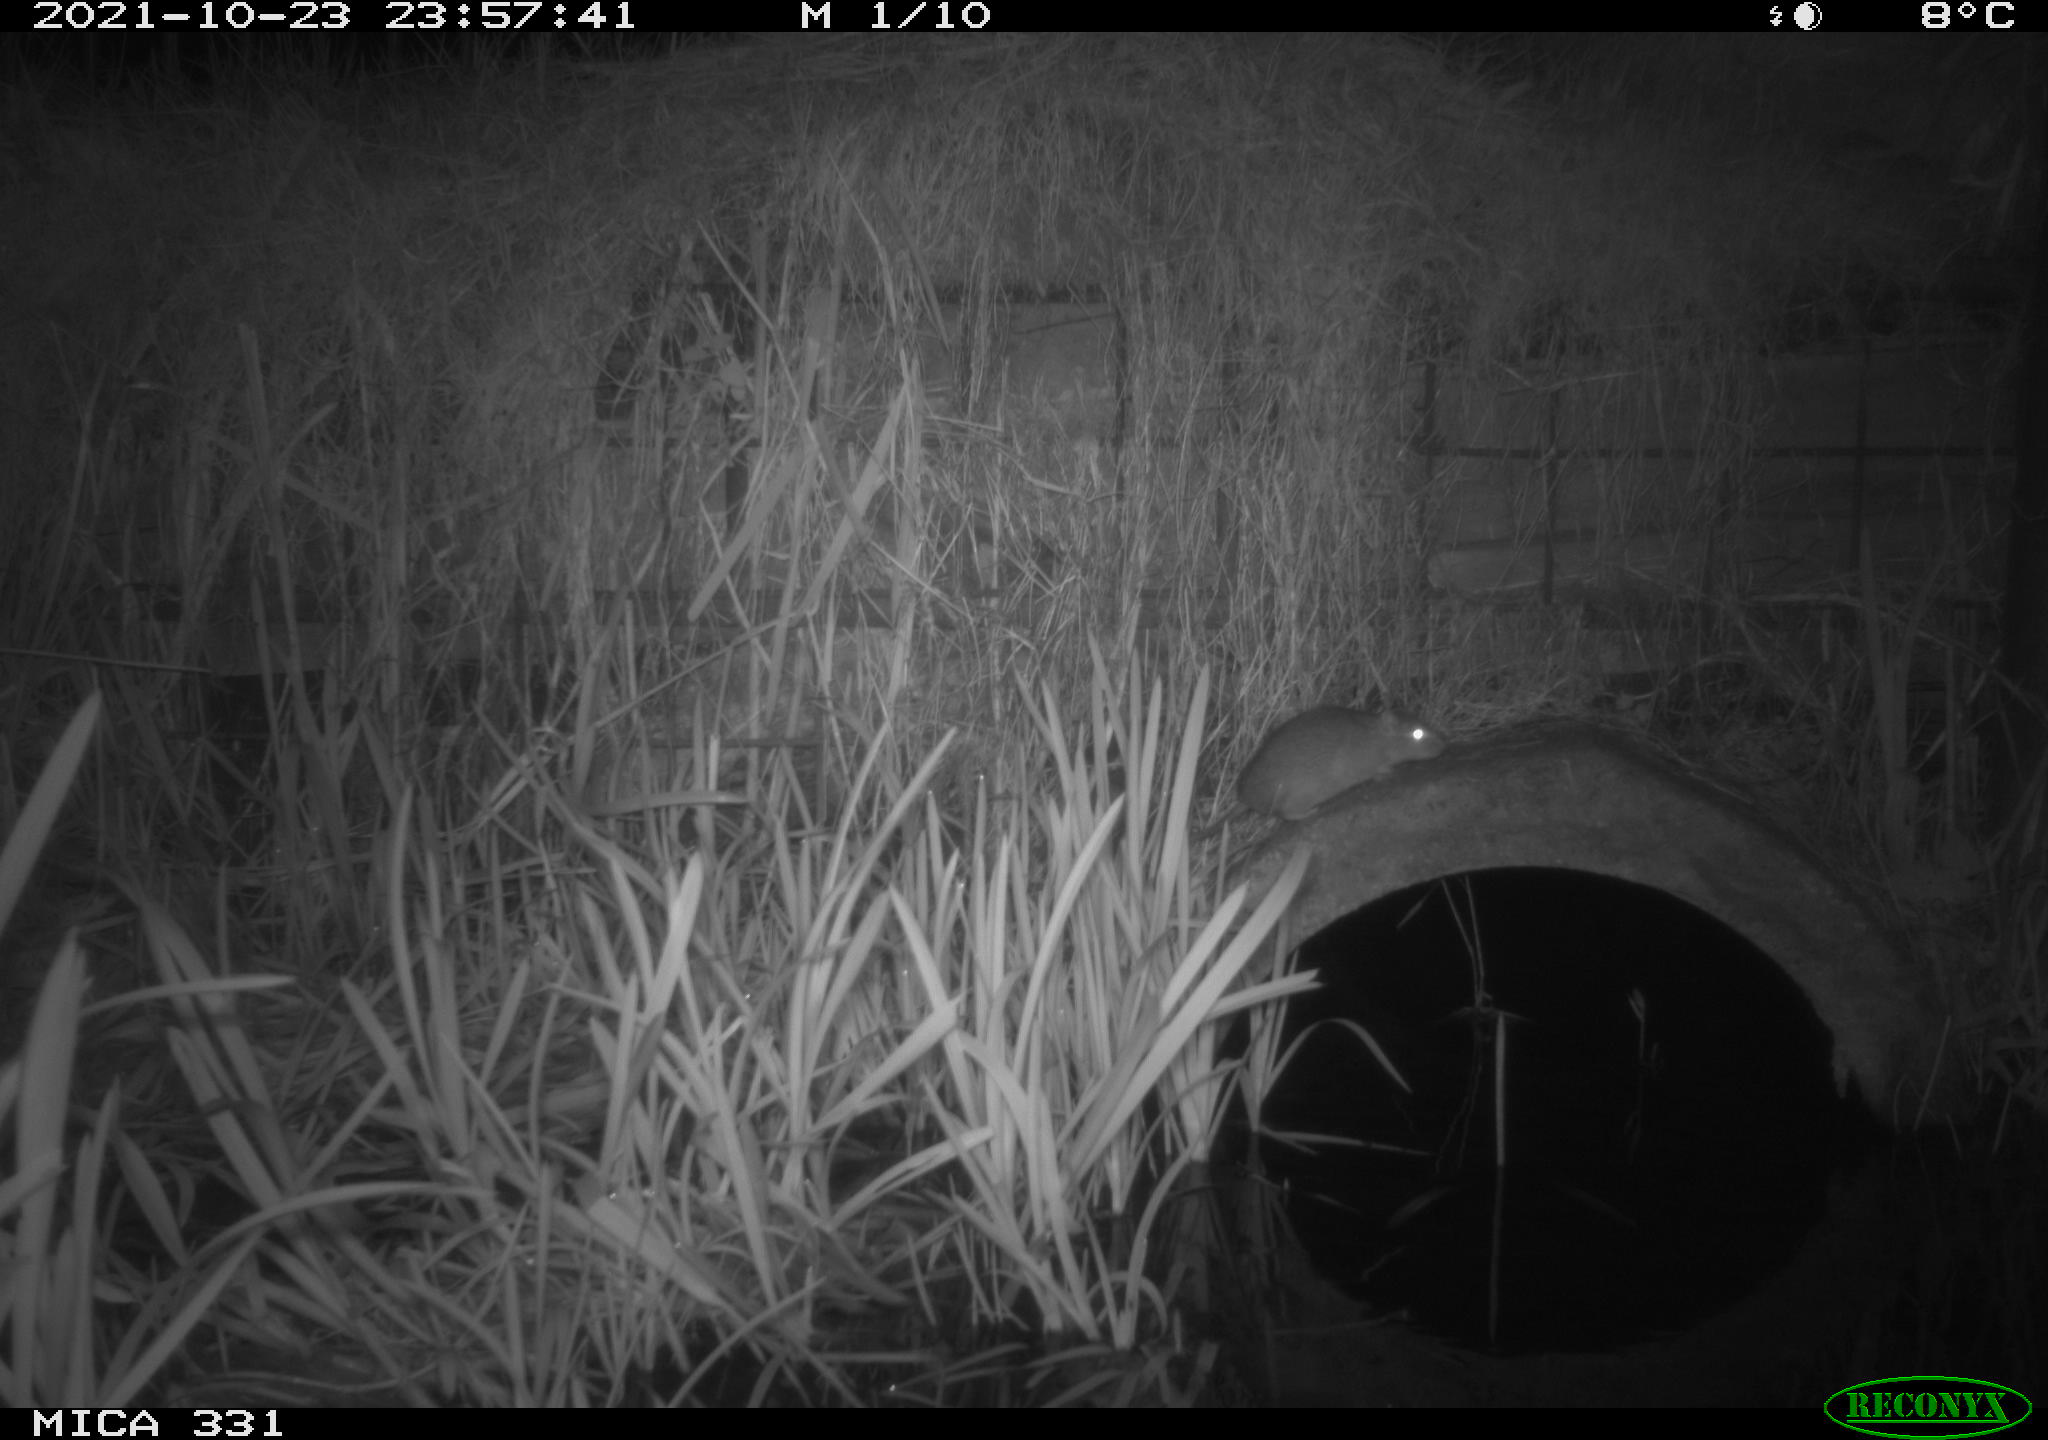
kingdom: Animalia
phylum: Chordata
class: Mammalia
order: Rodentia
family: Muridae
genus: Rattus
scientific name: Rattus norvegicus
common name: Brown rat
